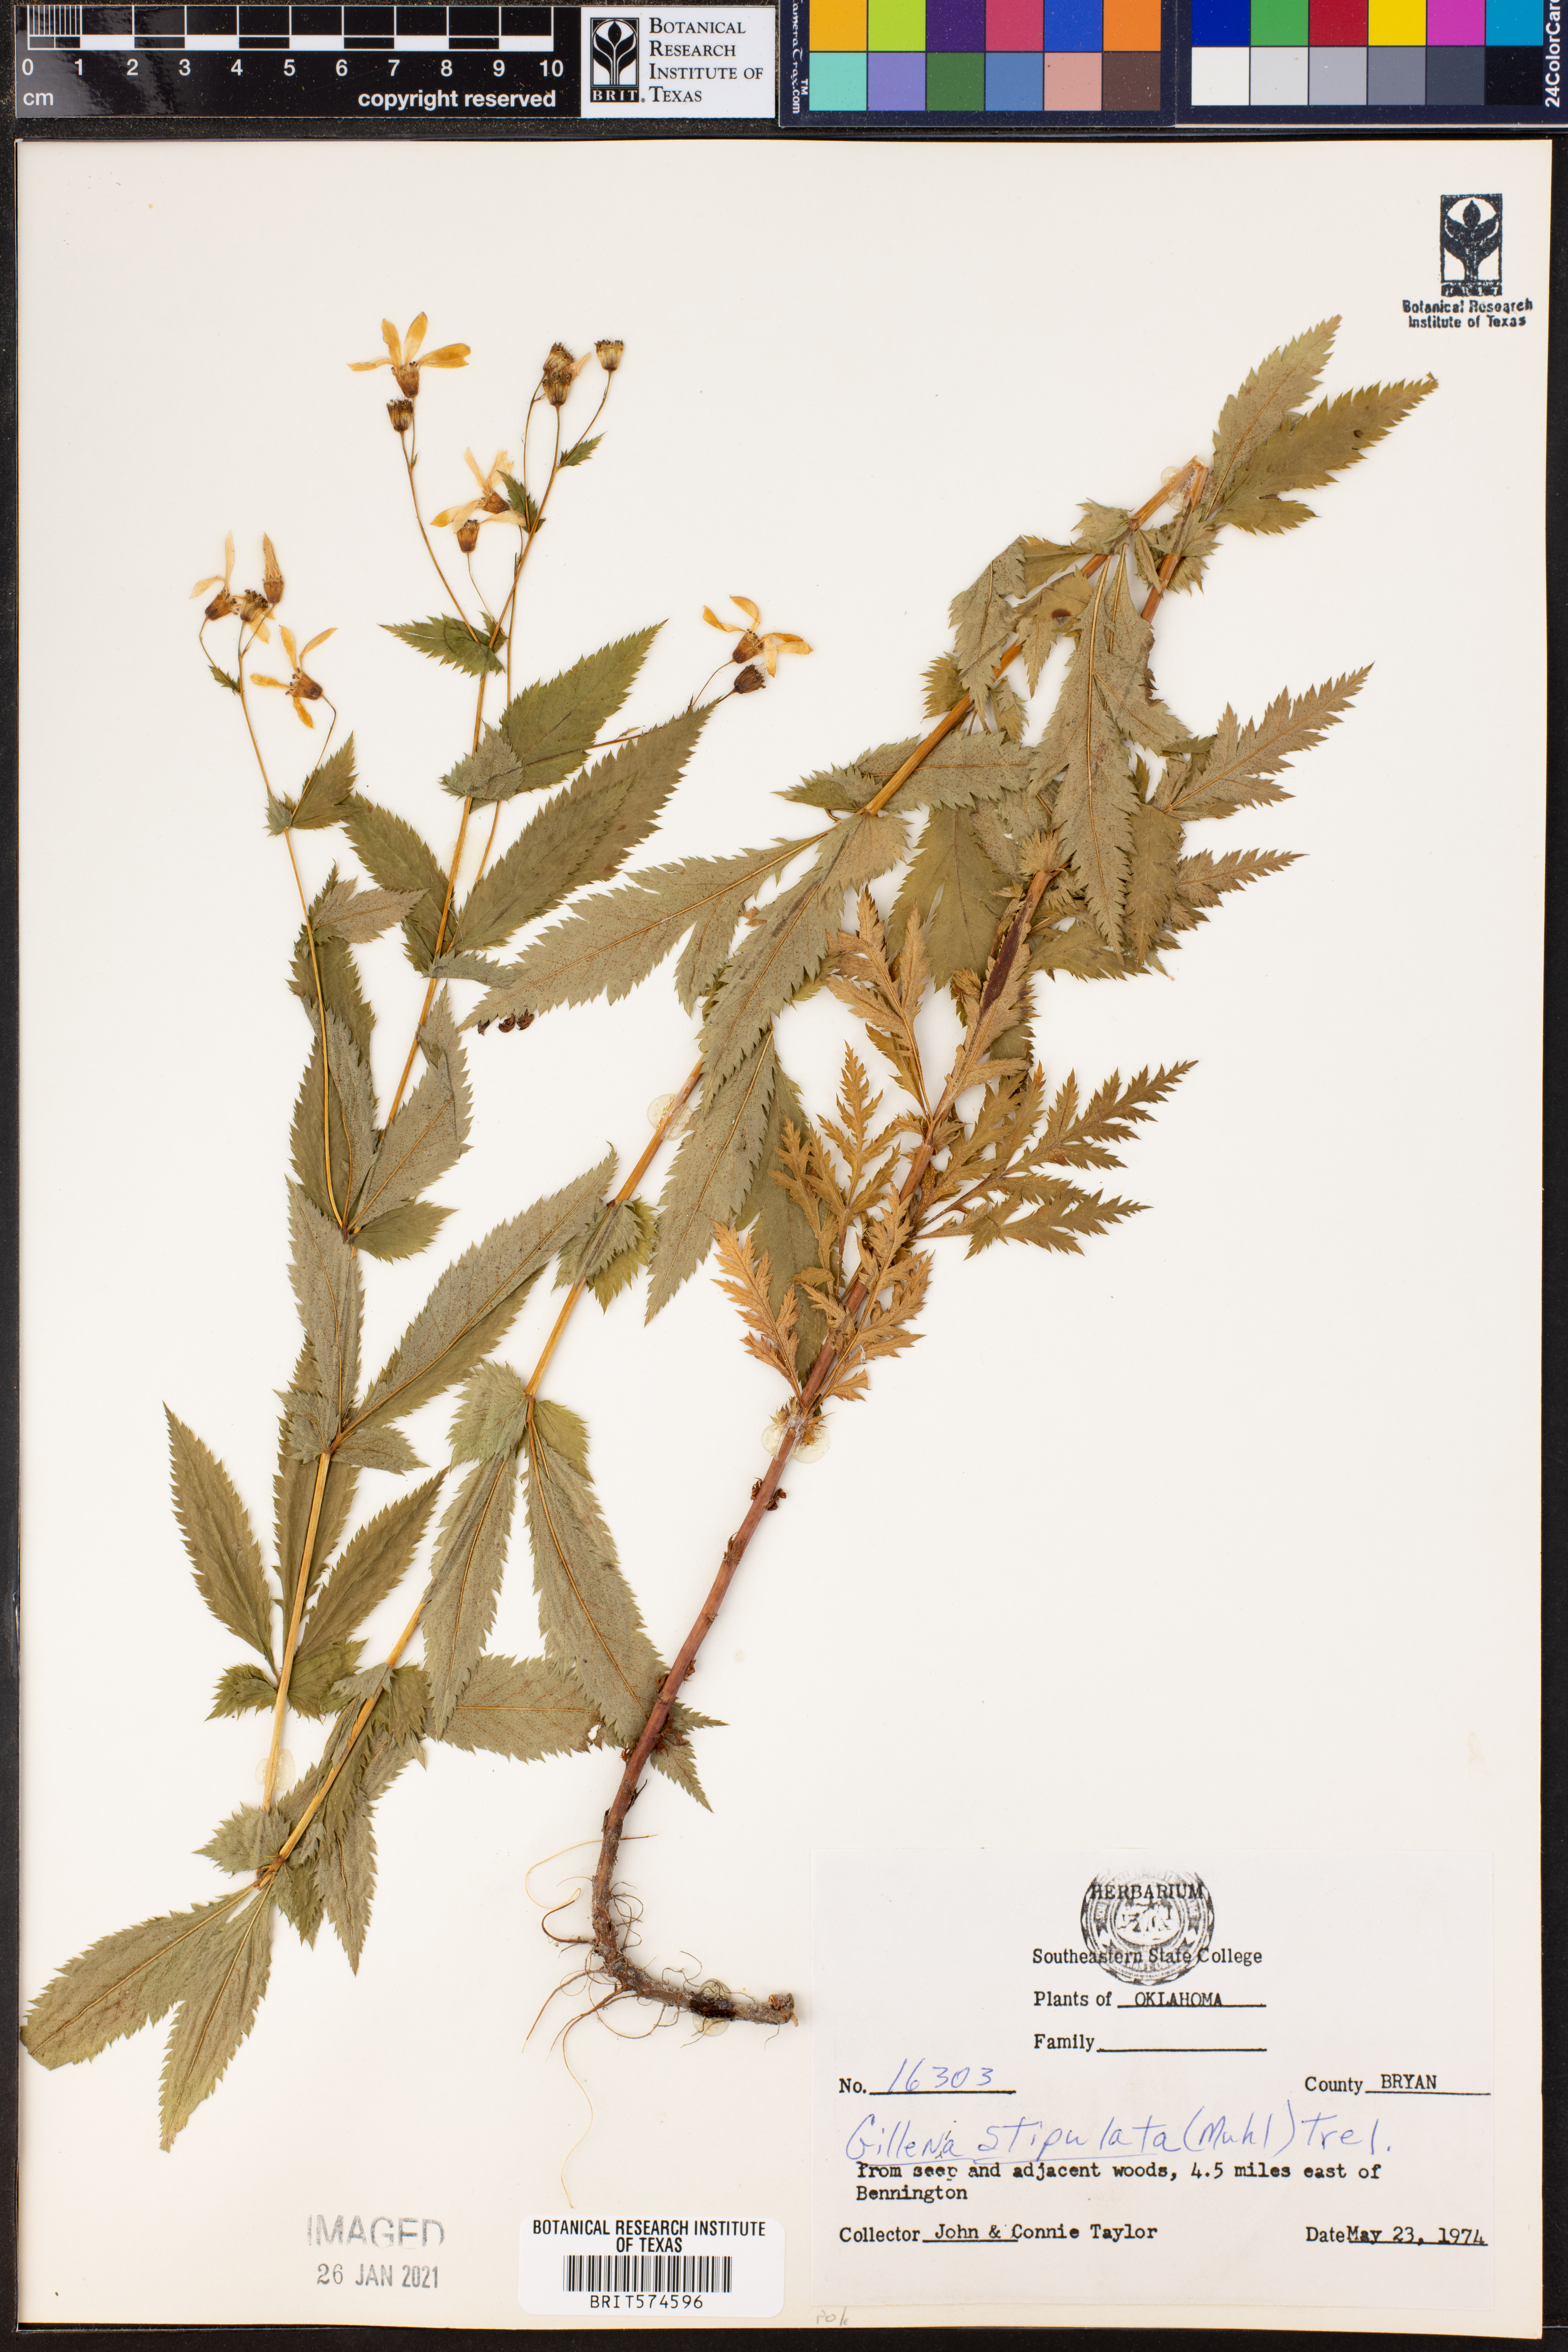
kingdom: Plantae
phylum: Tracheophyta
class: Magnoliopsida
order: Rosales
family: Rosaceae
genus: Gillenia
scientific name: Gillenia stipulata
